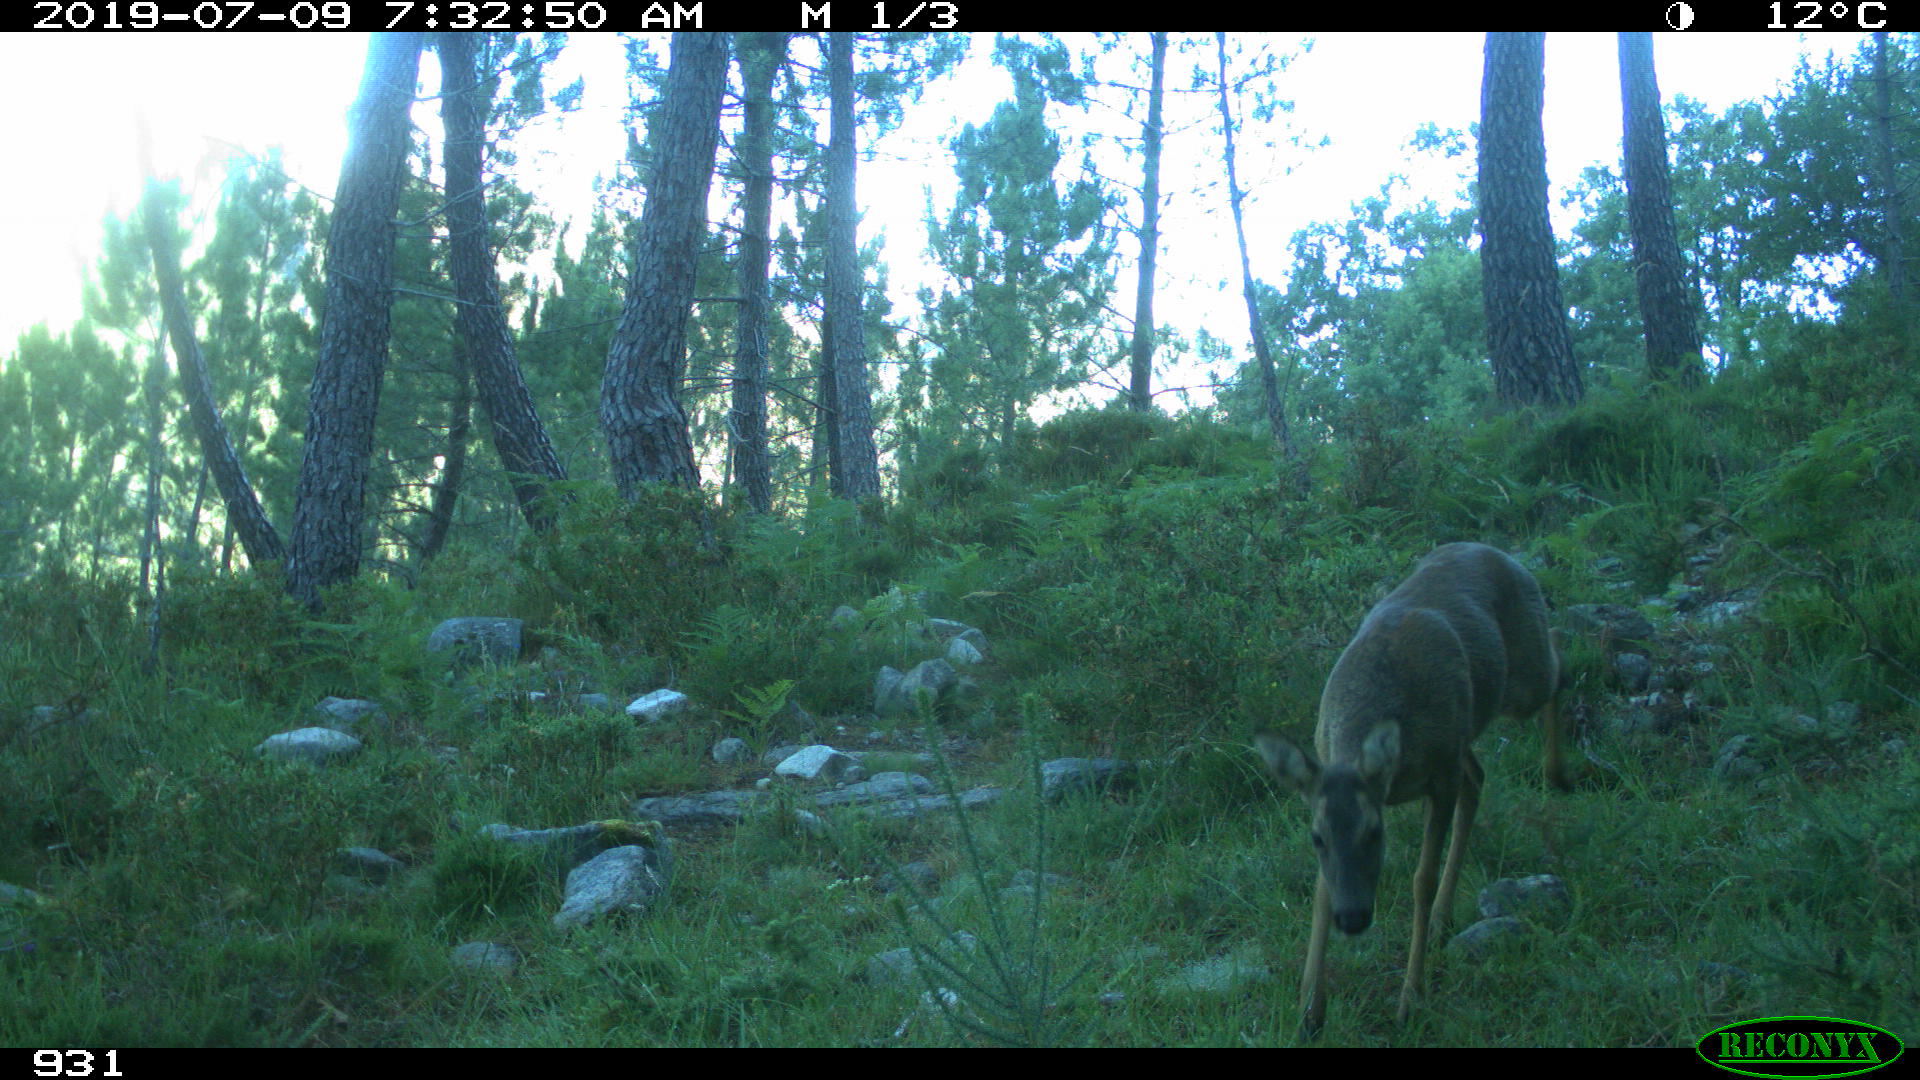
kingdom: Animalia
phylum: Chordata
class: Mammalia
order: Artiodactyla
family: Cervidae
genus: Capreolus
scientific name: Capreolus capreolus
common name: Western roe deer
